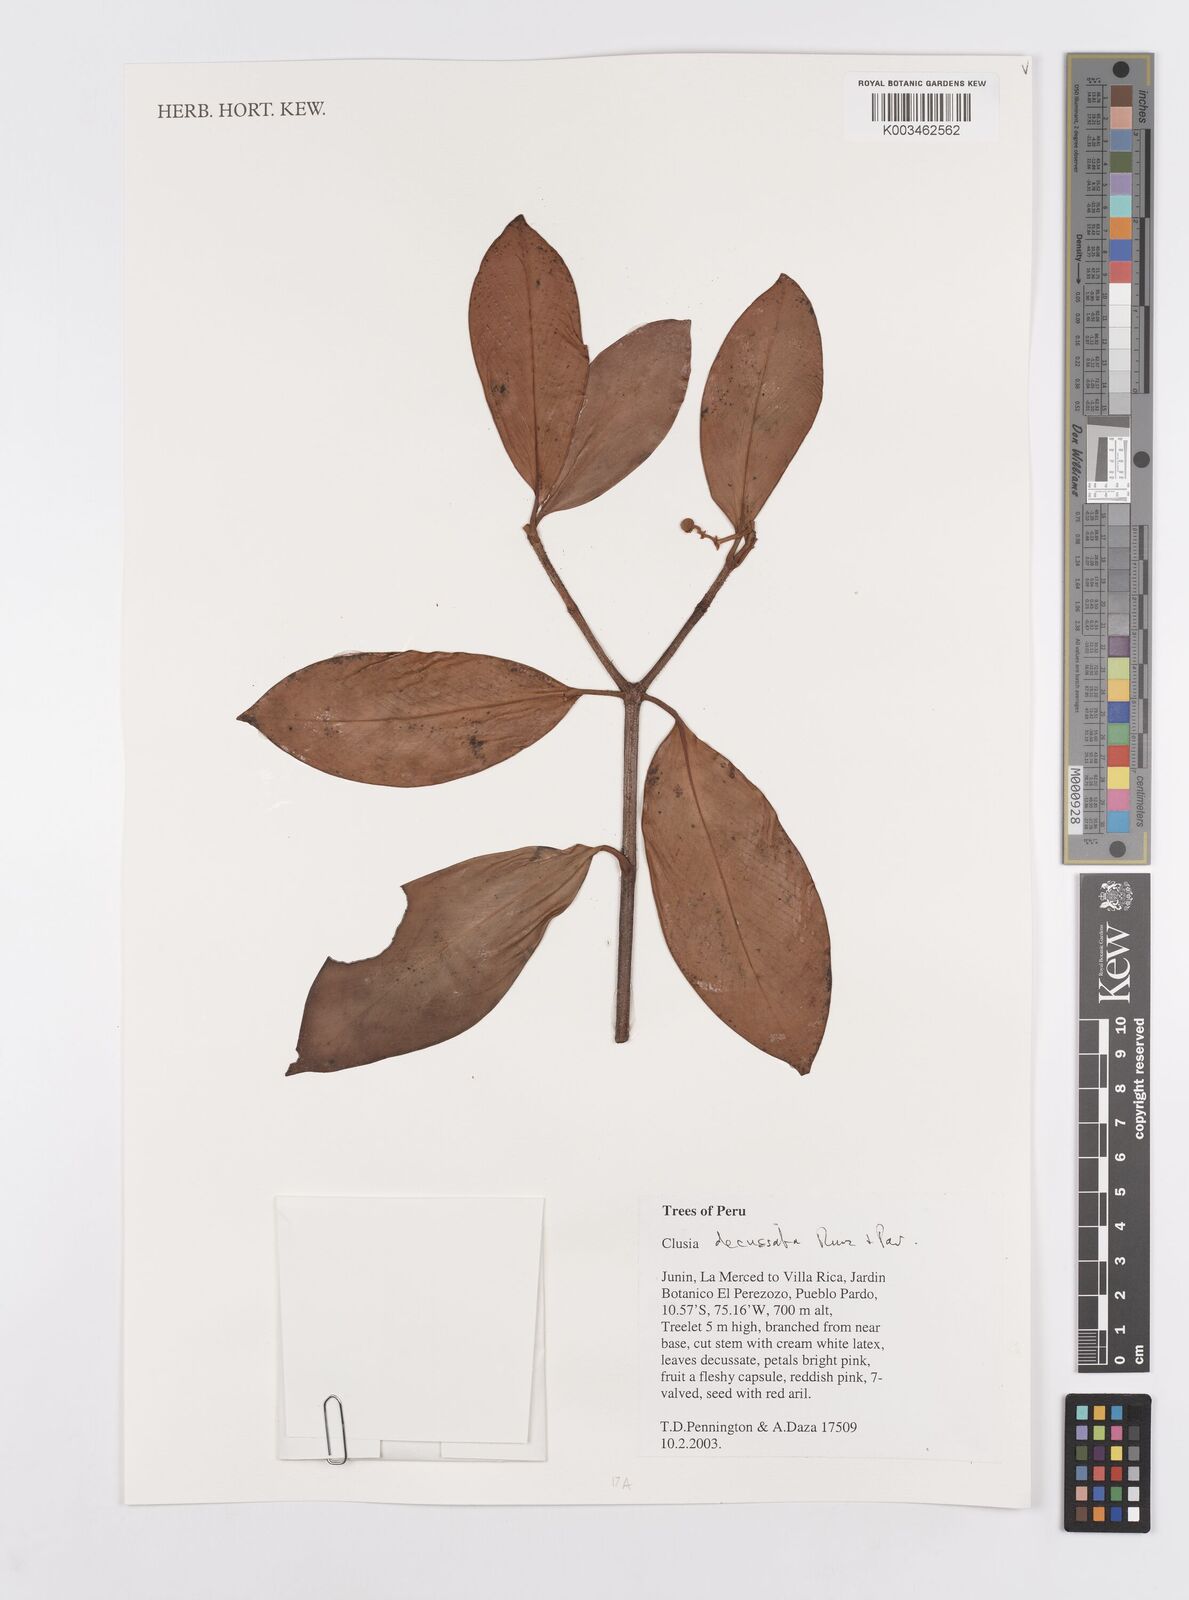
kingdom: Plantae
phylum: Tracheophyta
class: Magnoliopsida
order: Malpighiales
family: Clusiaceae
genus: Clusia
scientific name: Clusia decussata
